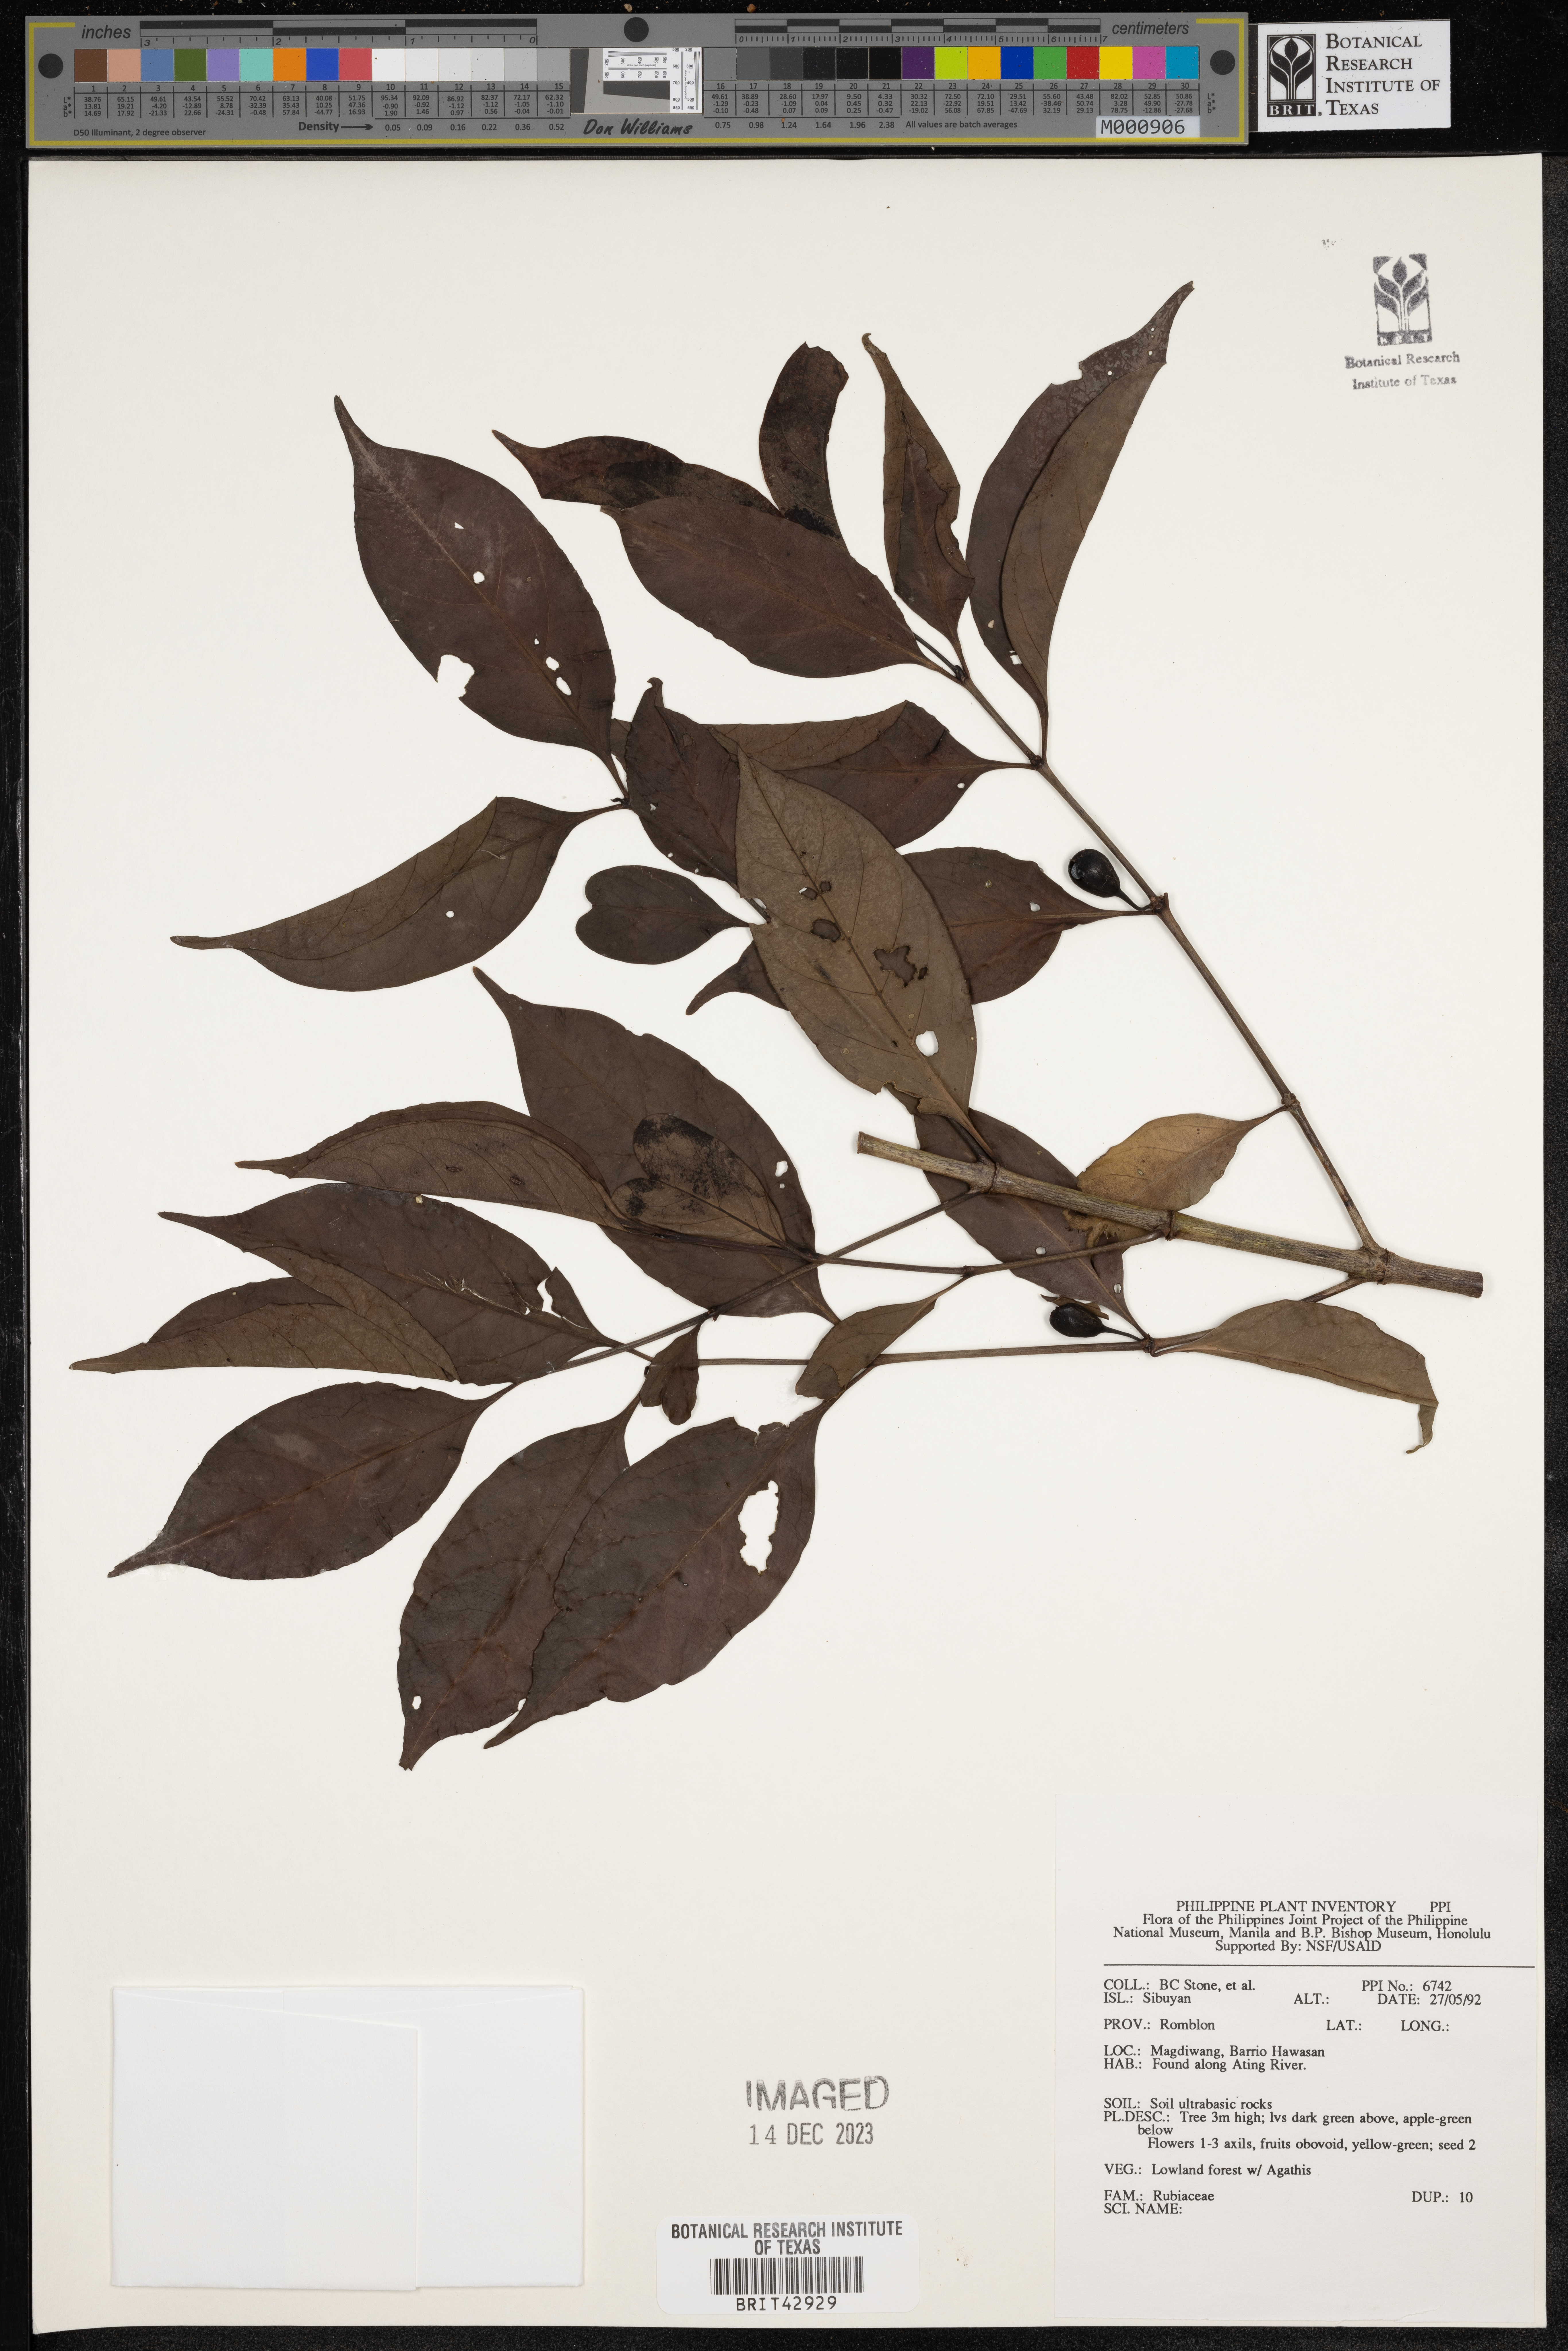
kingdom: Plantae
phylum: Tracheophyta
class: Magnoliopsida
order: Gentianales
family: Rubiaceae
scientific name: Rubiaceae
